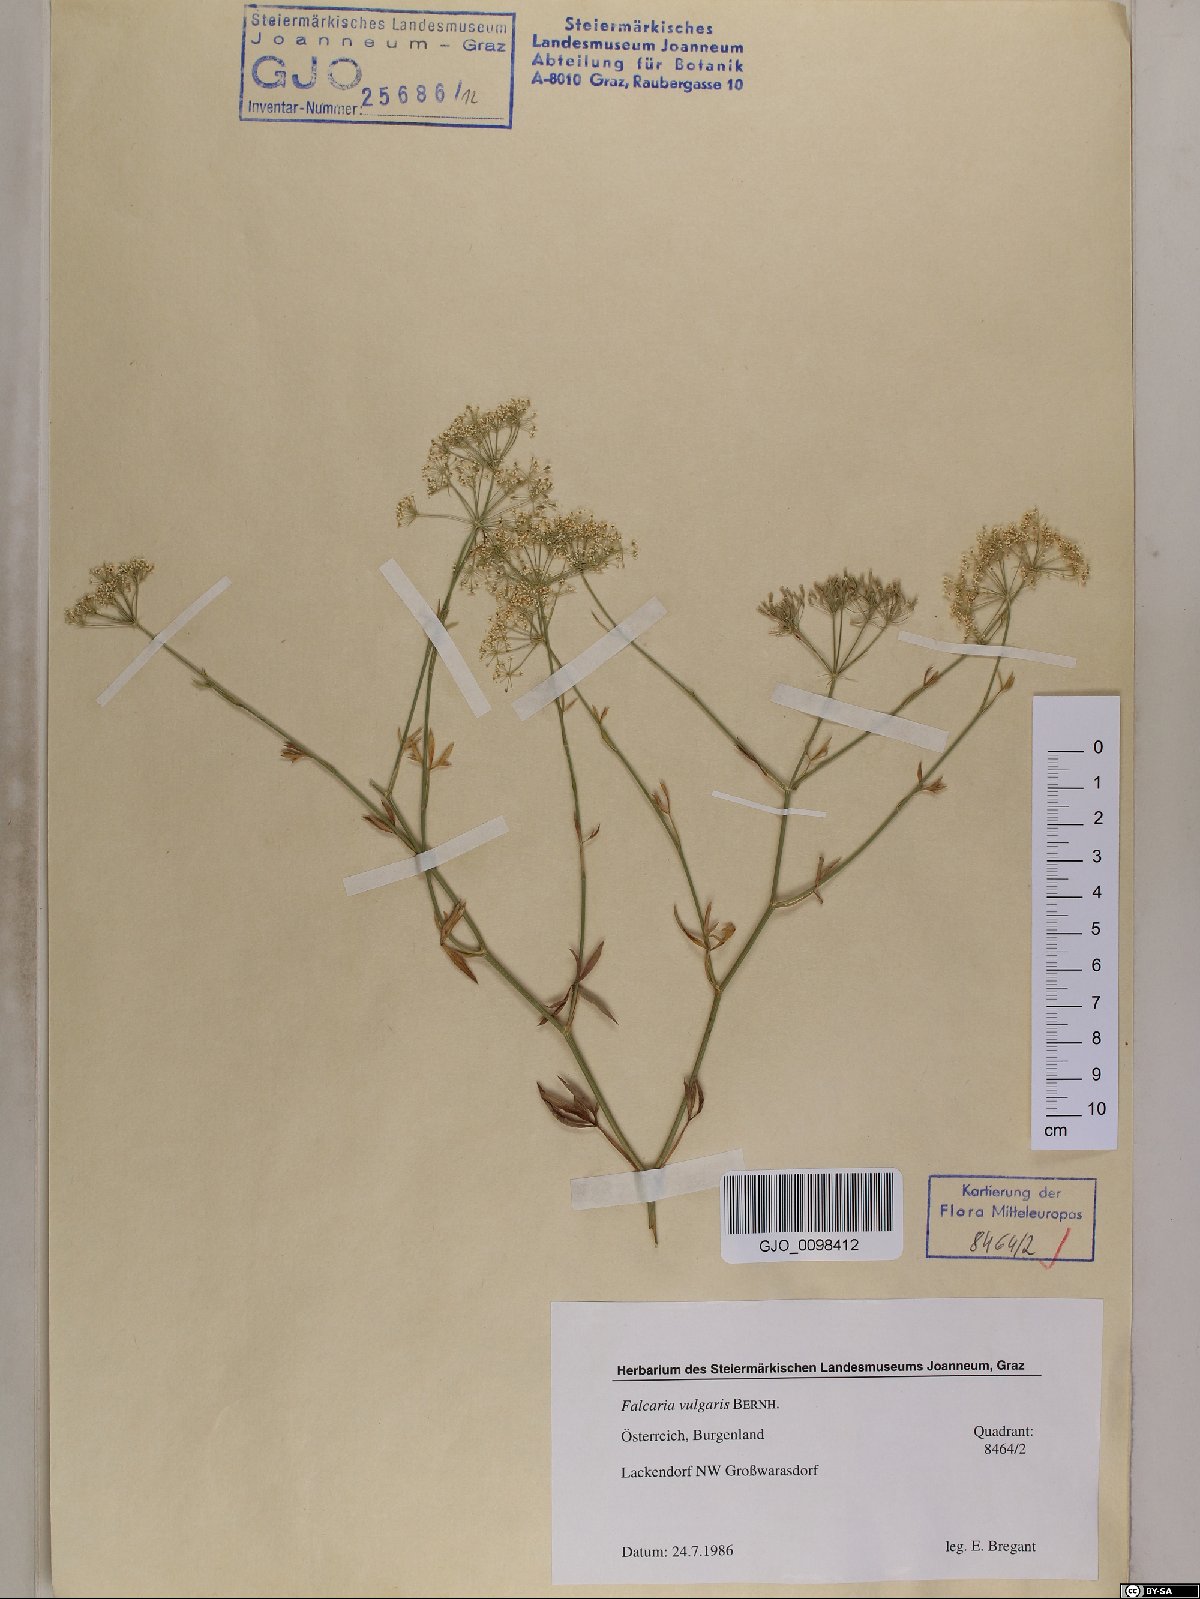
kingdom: Plantae
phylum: Tracheophyta
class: Magnoliopsida
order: Apiales
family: Apiaceae
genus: Falcaria
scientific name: Falcaria vulgaris
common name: Longleaf
